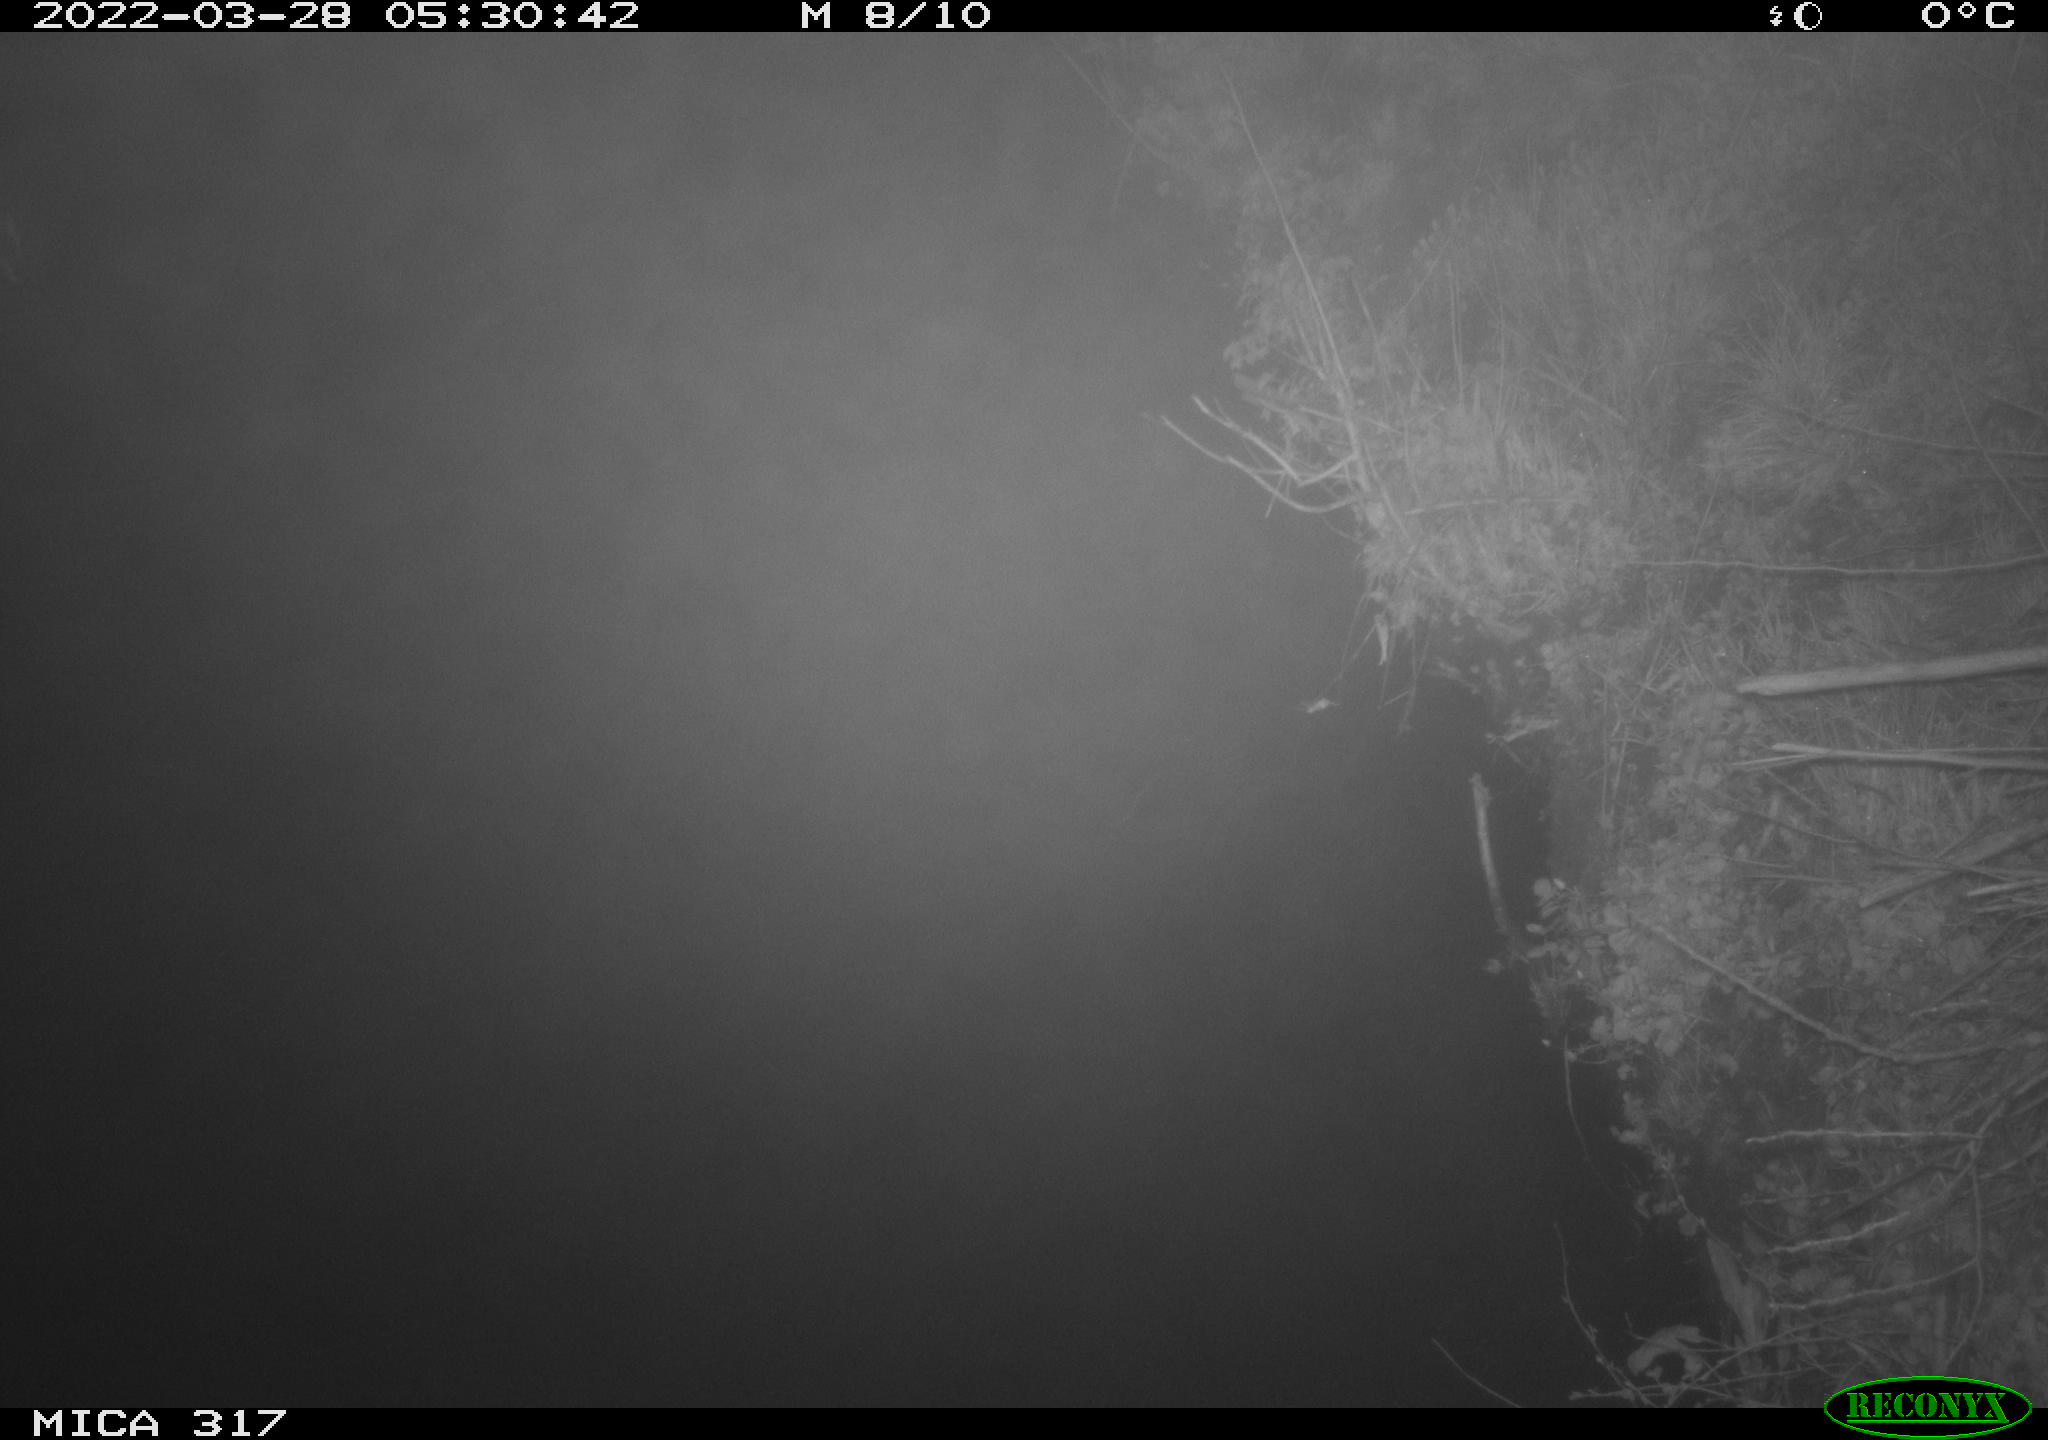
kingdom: Animalia
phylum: Chordata
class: Aves
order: Anseriformes
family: Anatidae
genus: Anas
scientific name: Anas platyrhynchos
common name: Mallard
